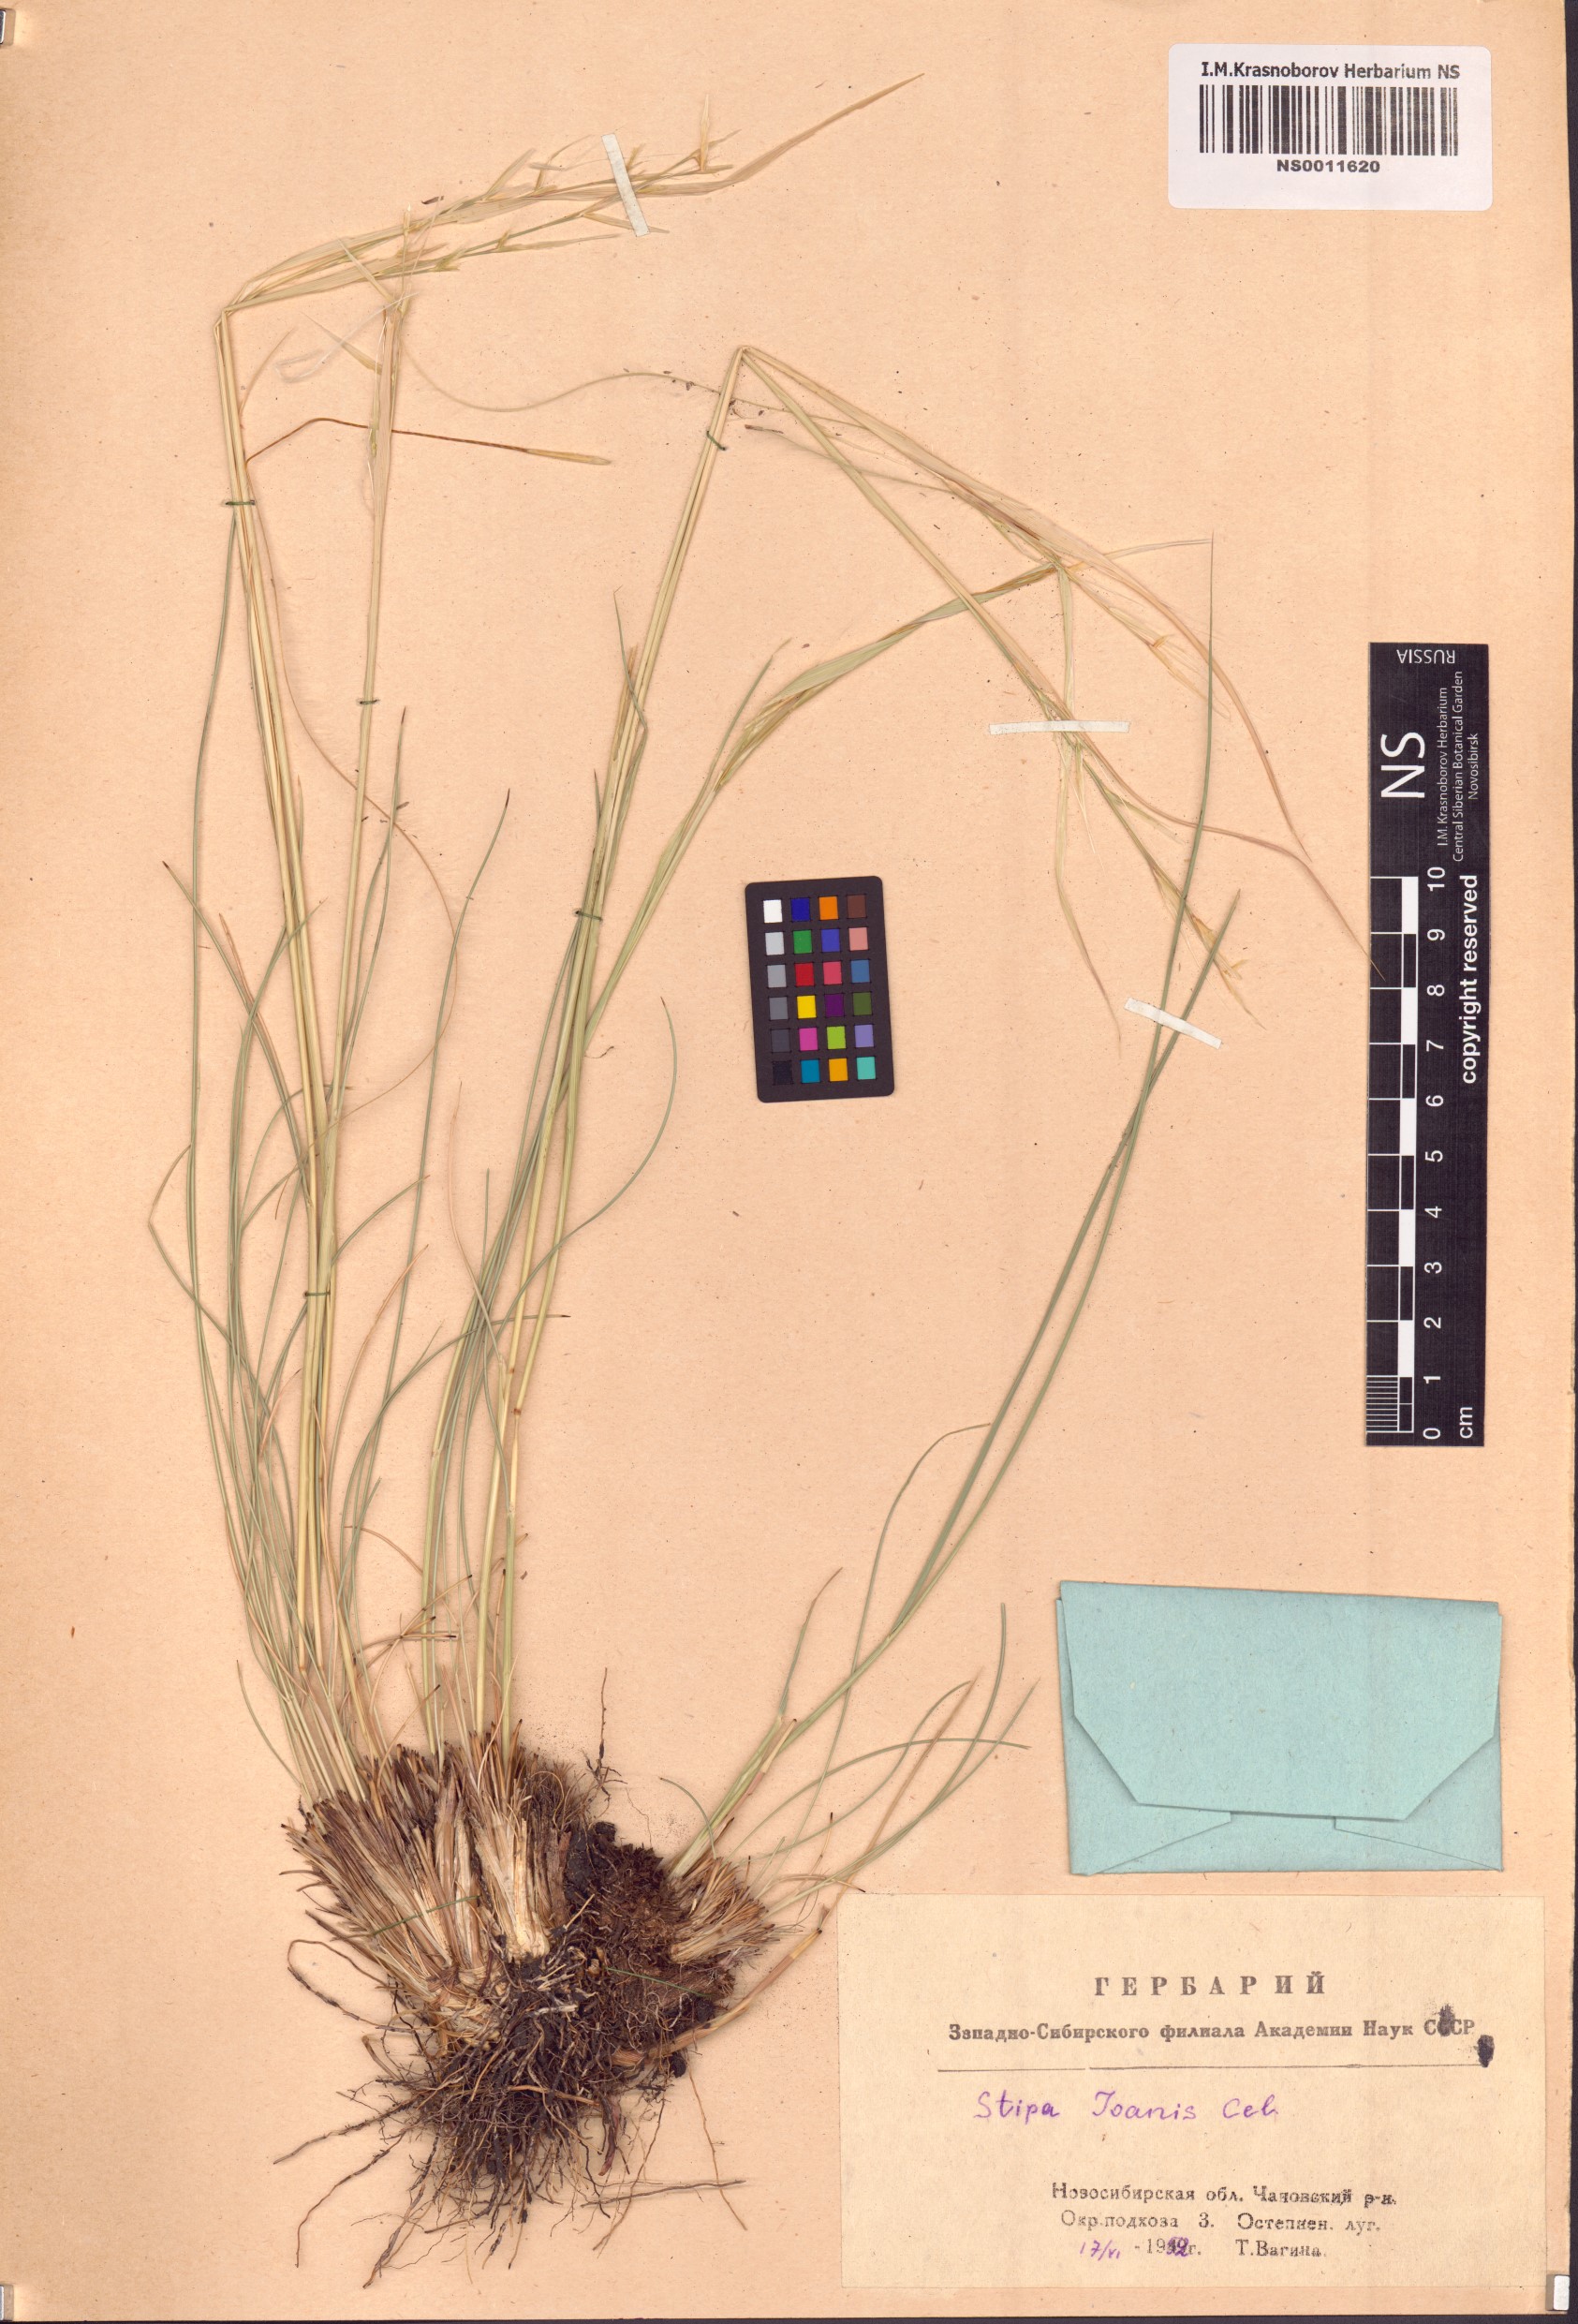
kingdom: Plantae
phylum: Tracheophyta
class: Liliopsida
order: Poales
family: Poaceae
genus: Stipa
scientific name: Stipa pennata
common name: European feather grass
